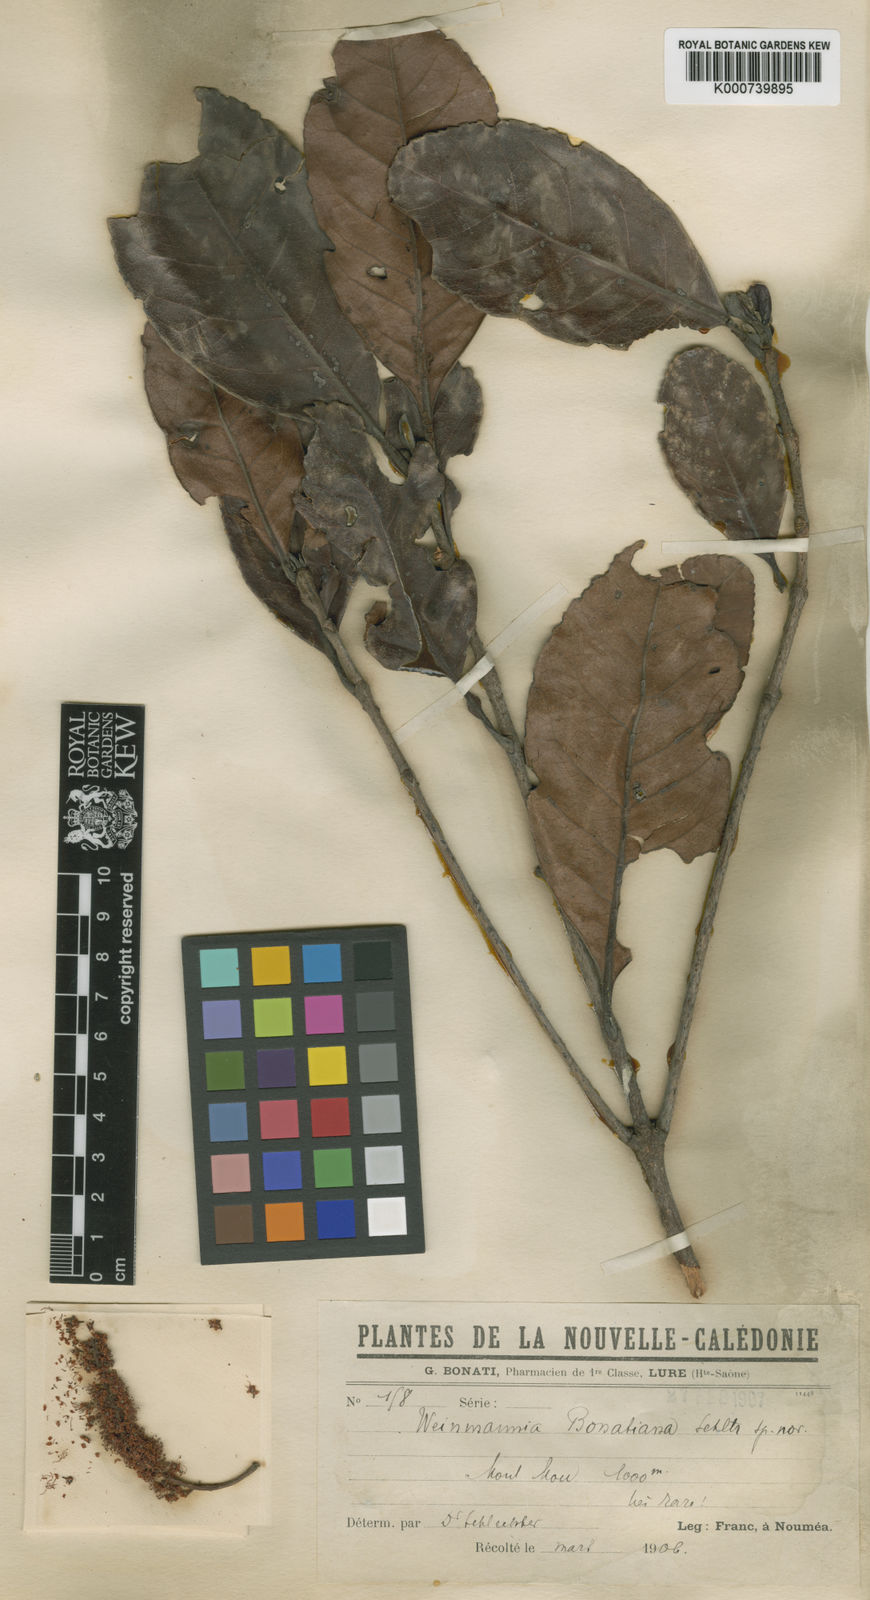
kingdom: Plantae
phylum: Tracheophyta
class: Magnoliopsida
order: Oxalidales
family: Cunoniaceae
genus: Cunonia
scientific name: Cunonia balansae
